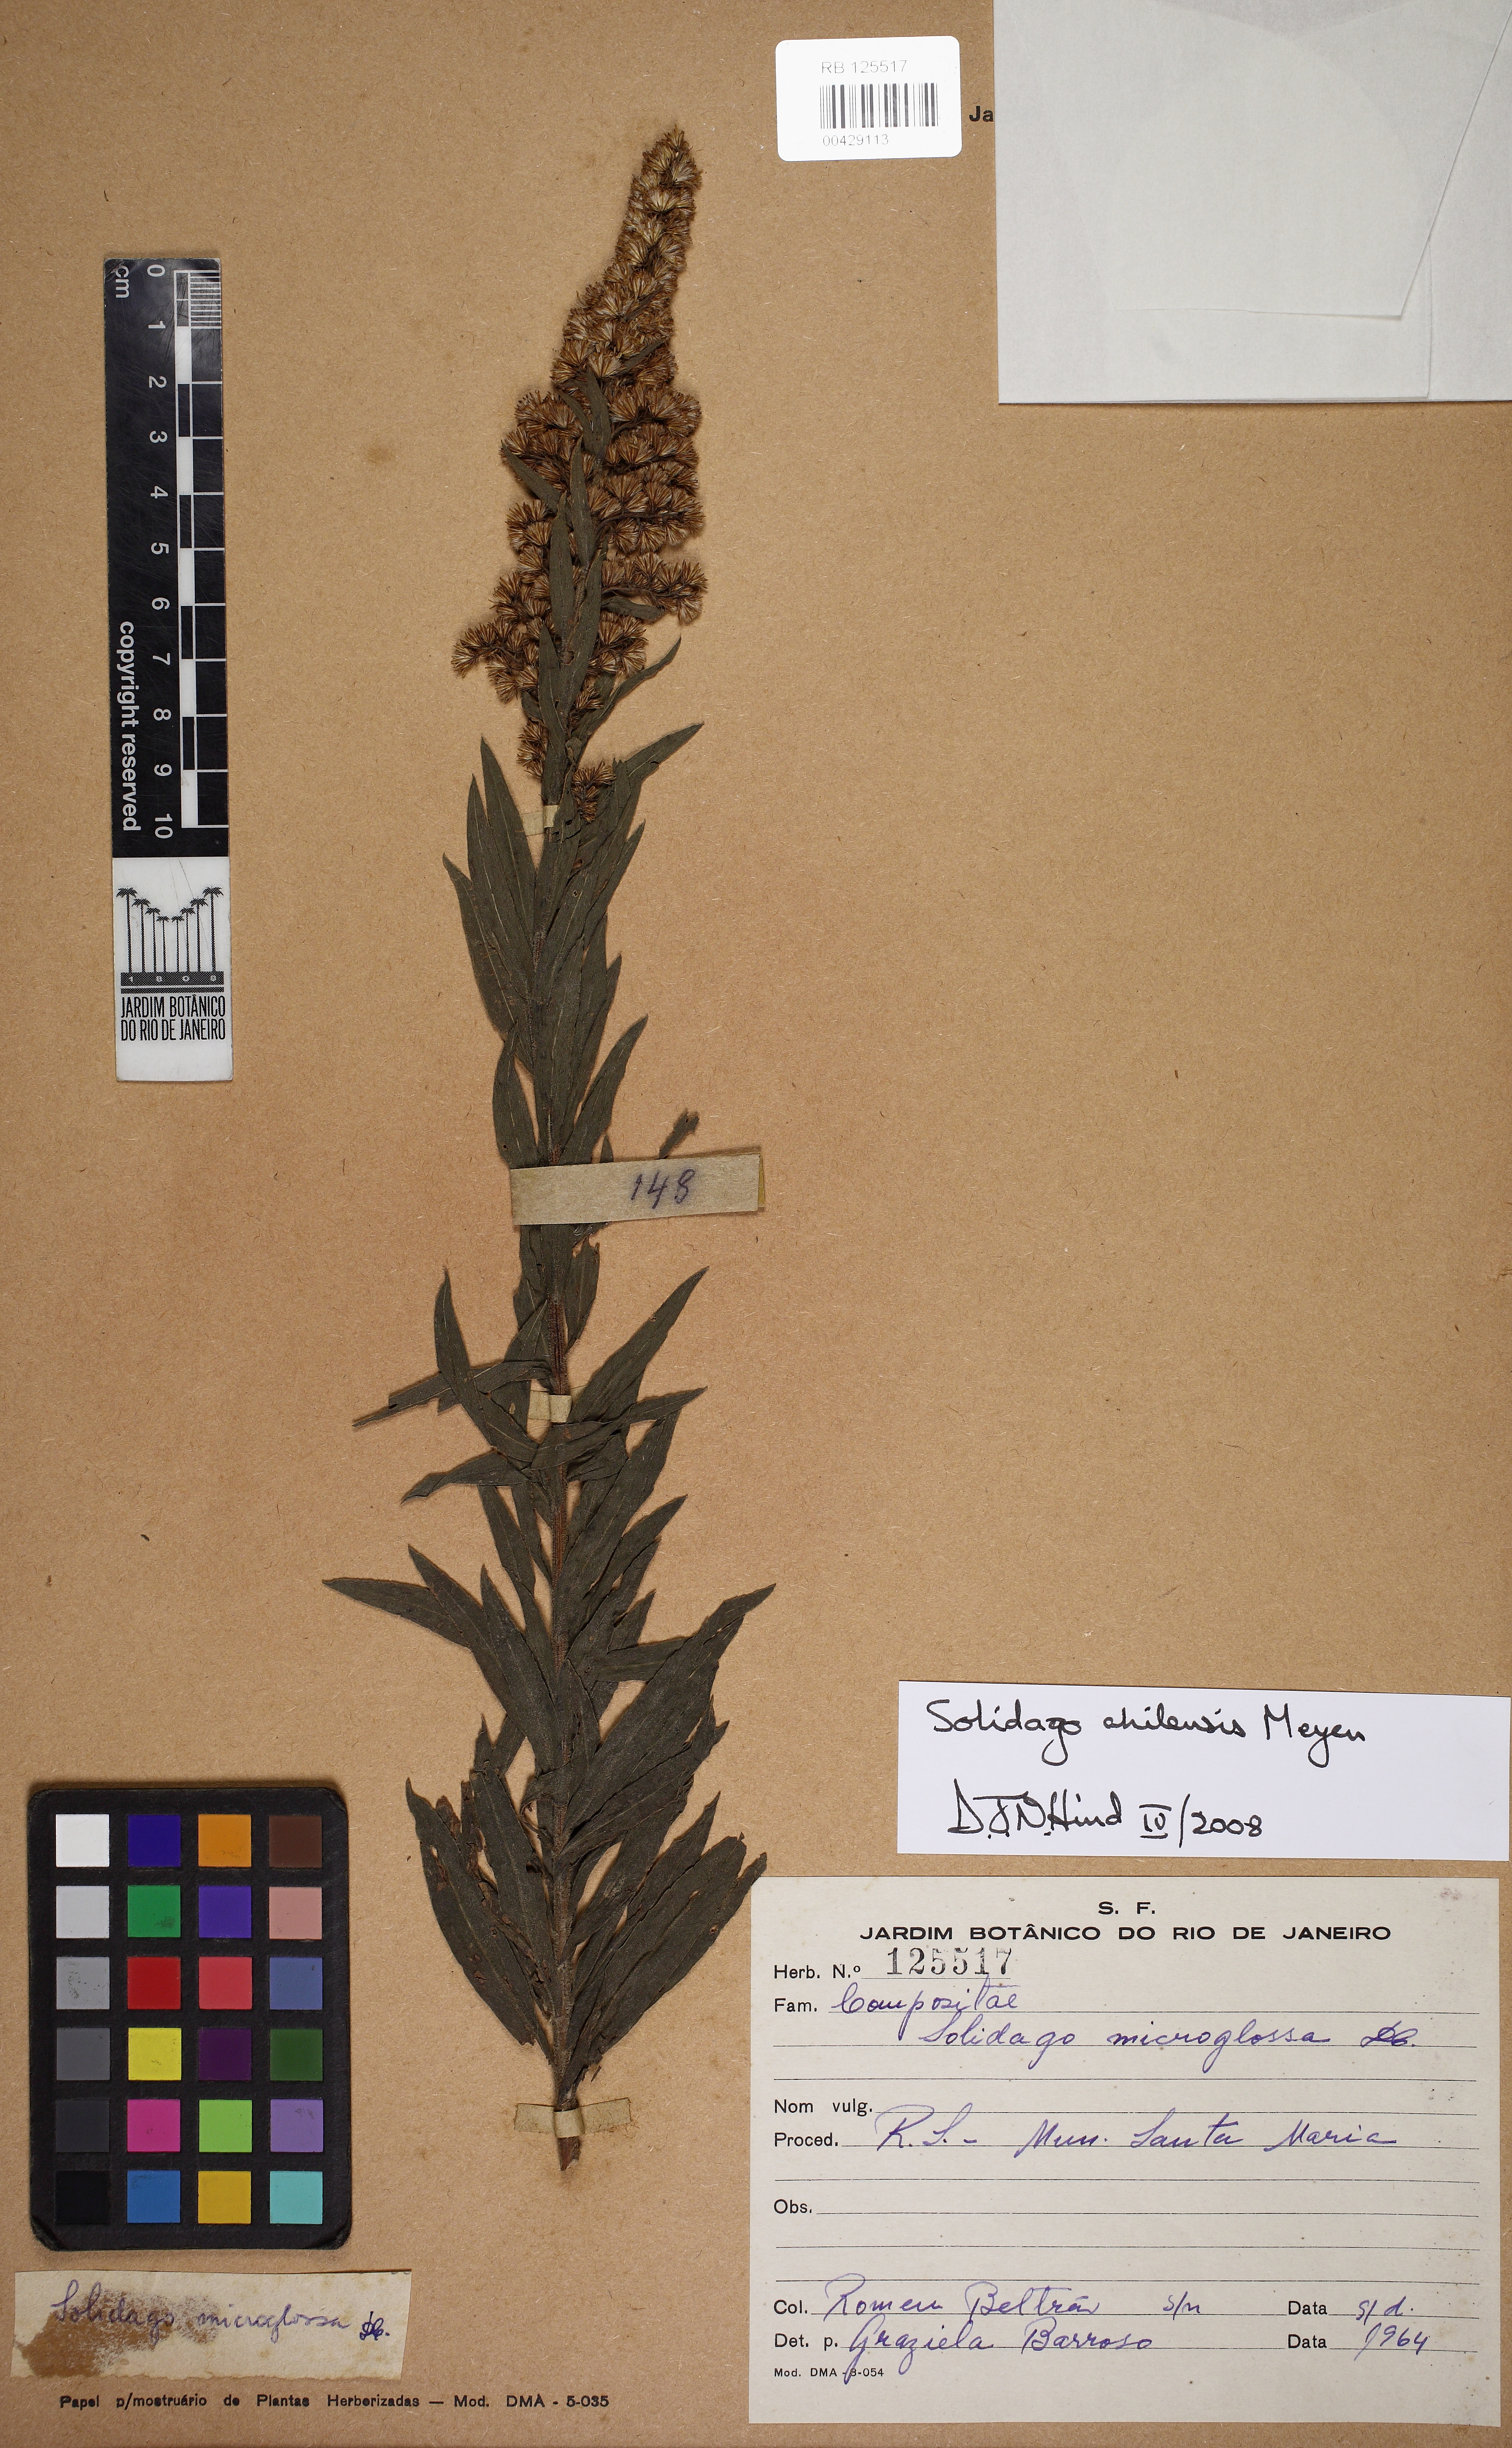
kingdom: Plantae
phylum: Tracheophyta
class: Magnoliopsida
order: Asterales
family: Asteraceae
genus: Solidago
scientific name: Solidago chilensis
